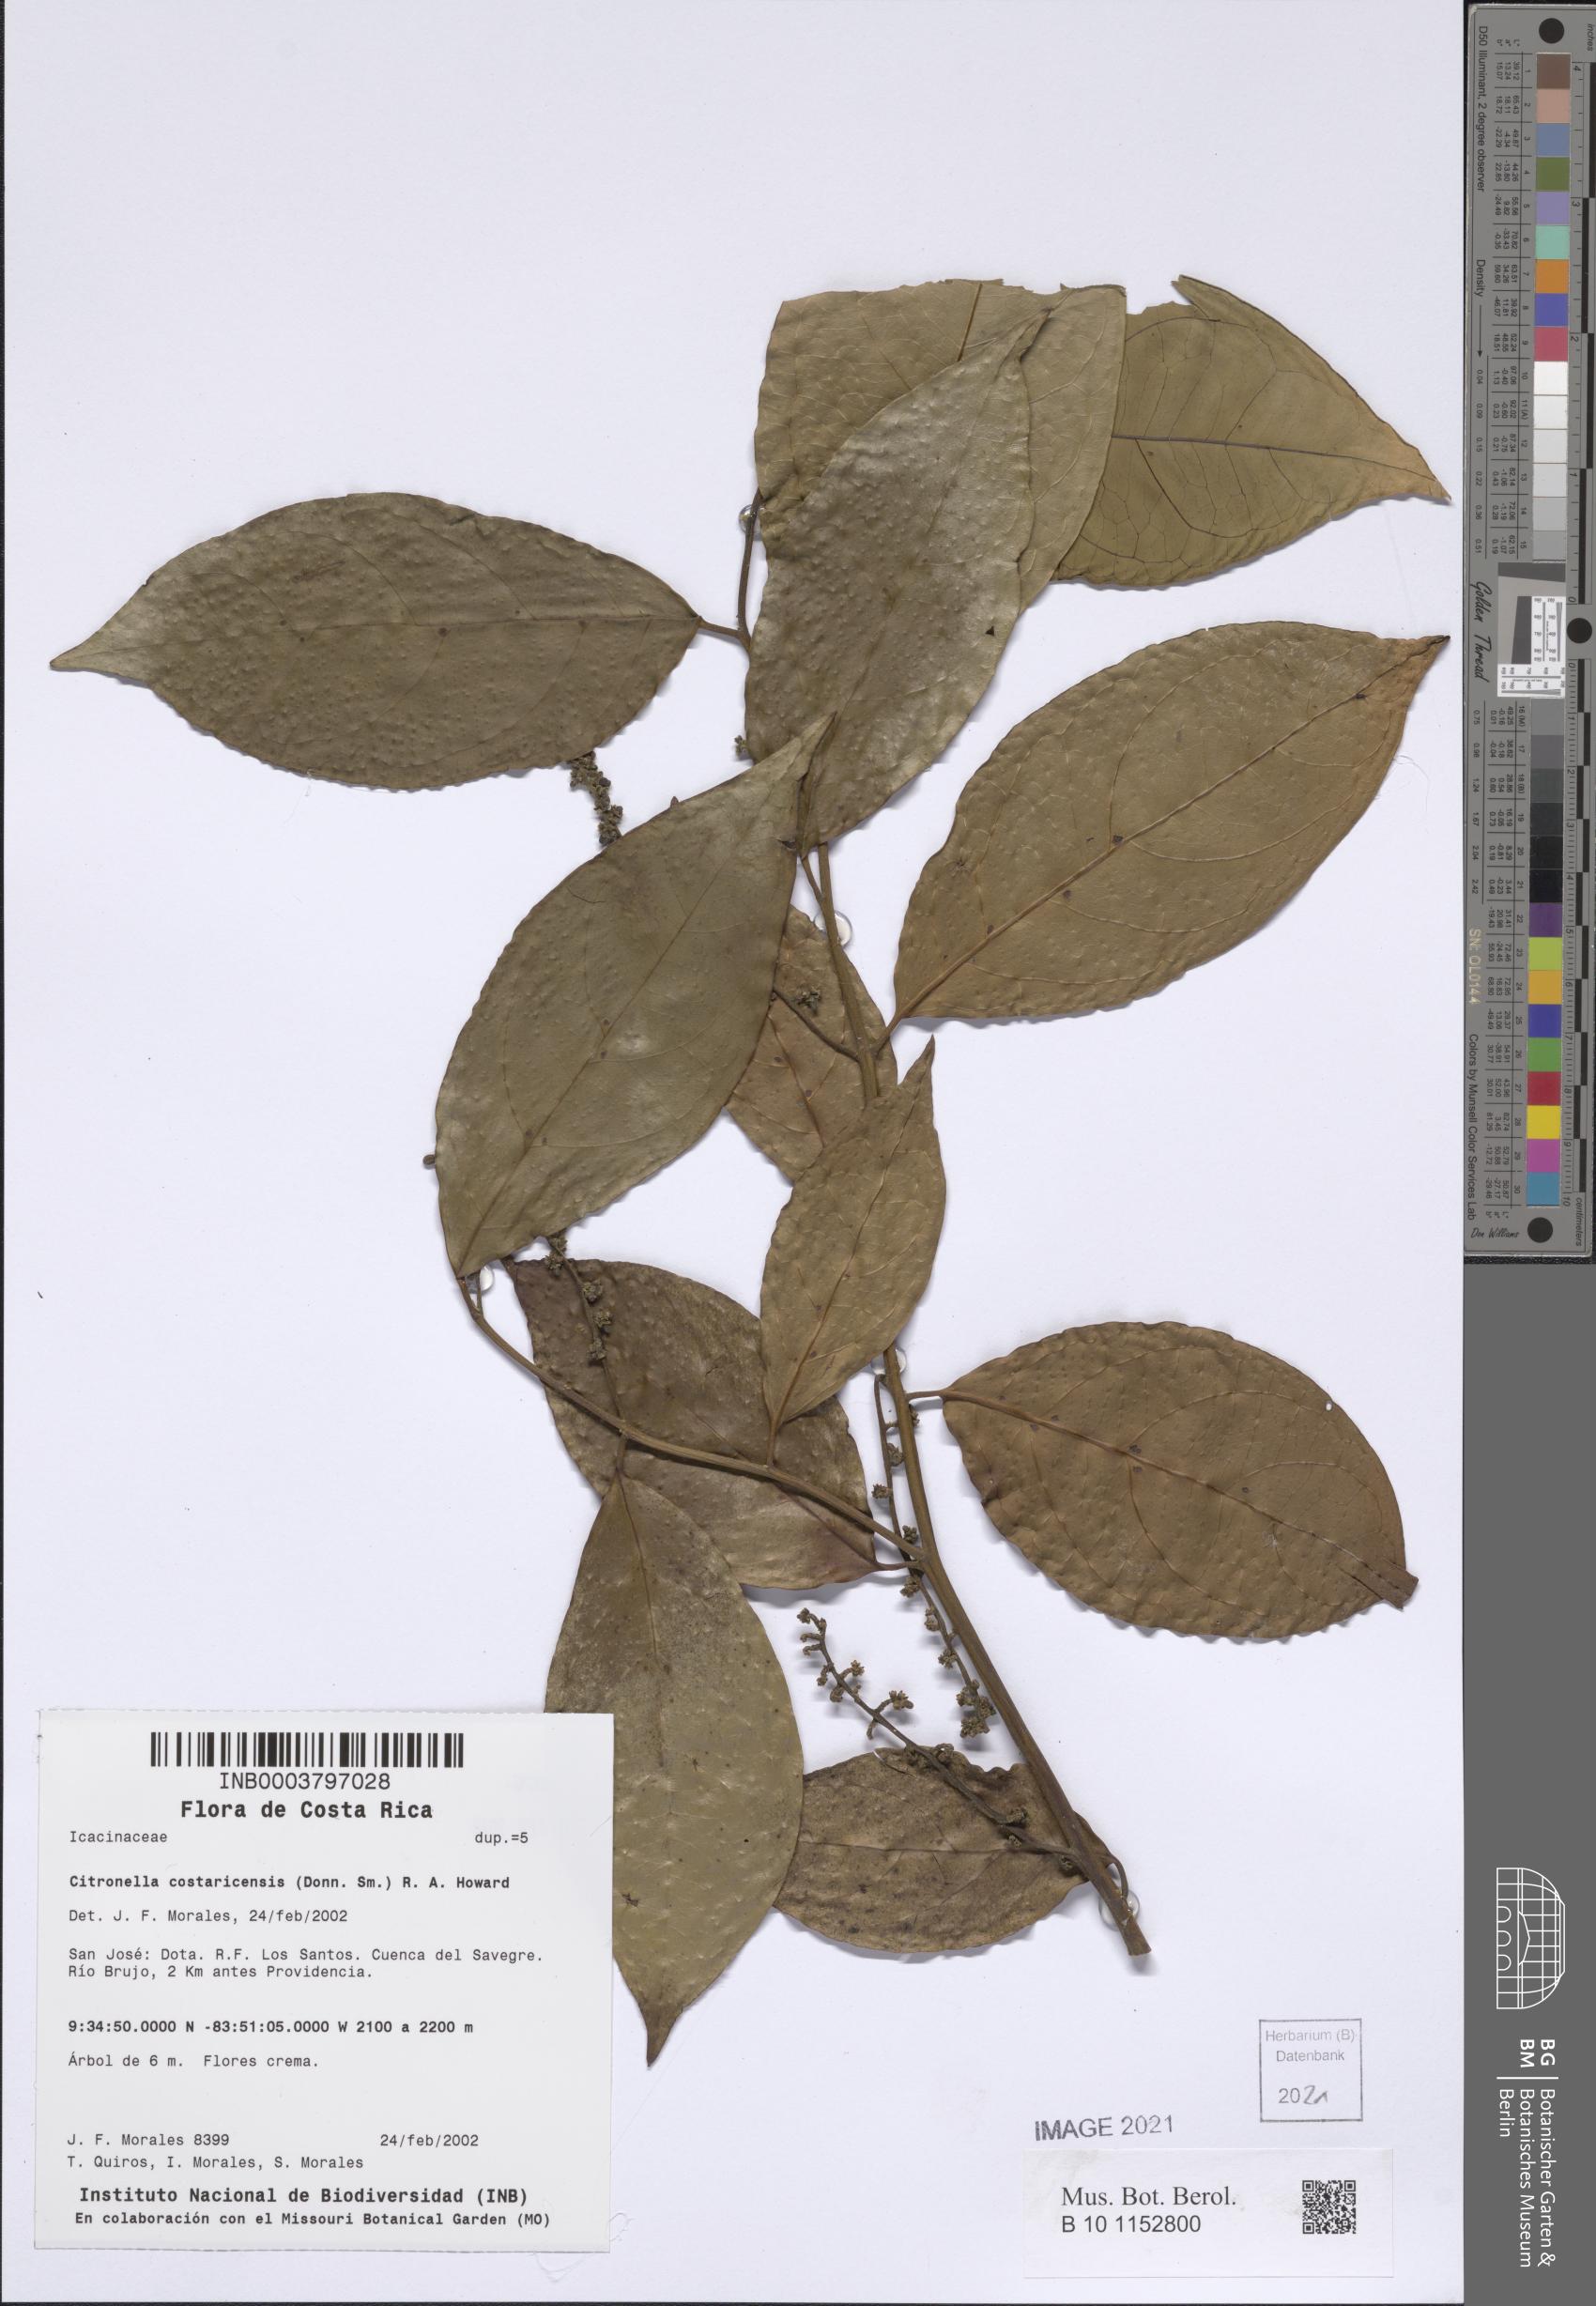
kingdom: Plantae
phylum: Tracheophyta
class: Magnoliopsida
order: Cardiopteridales
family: Cardiopteridaceae
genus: Citronella
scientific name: Citronella costaricensis
